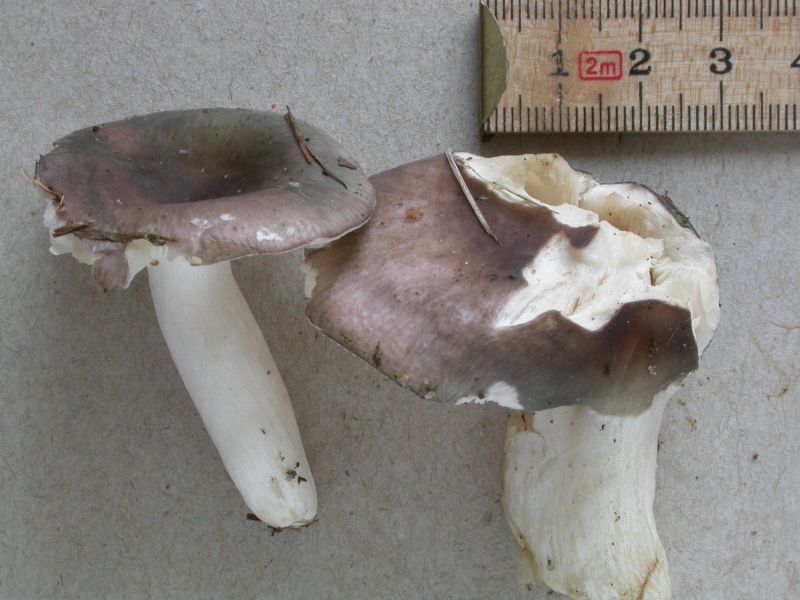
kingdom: Fungi
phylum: Basidiomycota
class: Agaricomycetes
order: Russulales
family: Russulaceae
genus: Russula
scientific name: Russula parazurea
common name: blågrå skørhat
